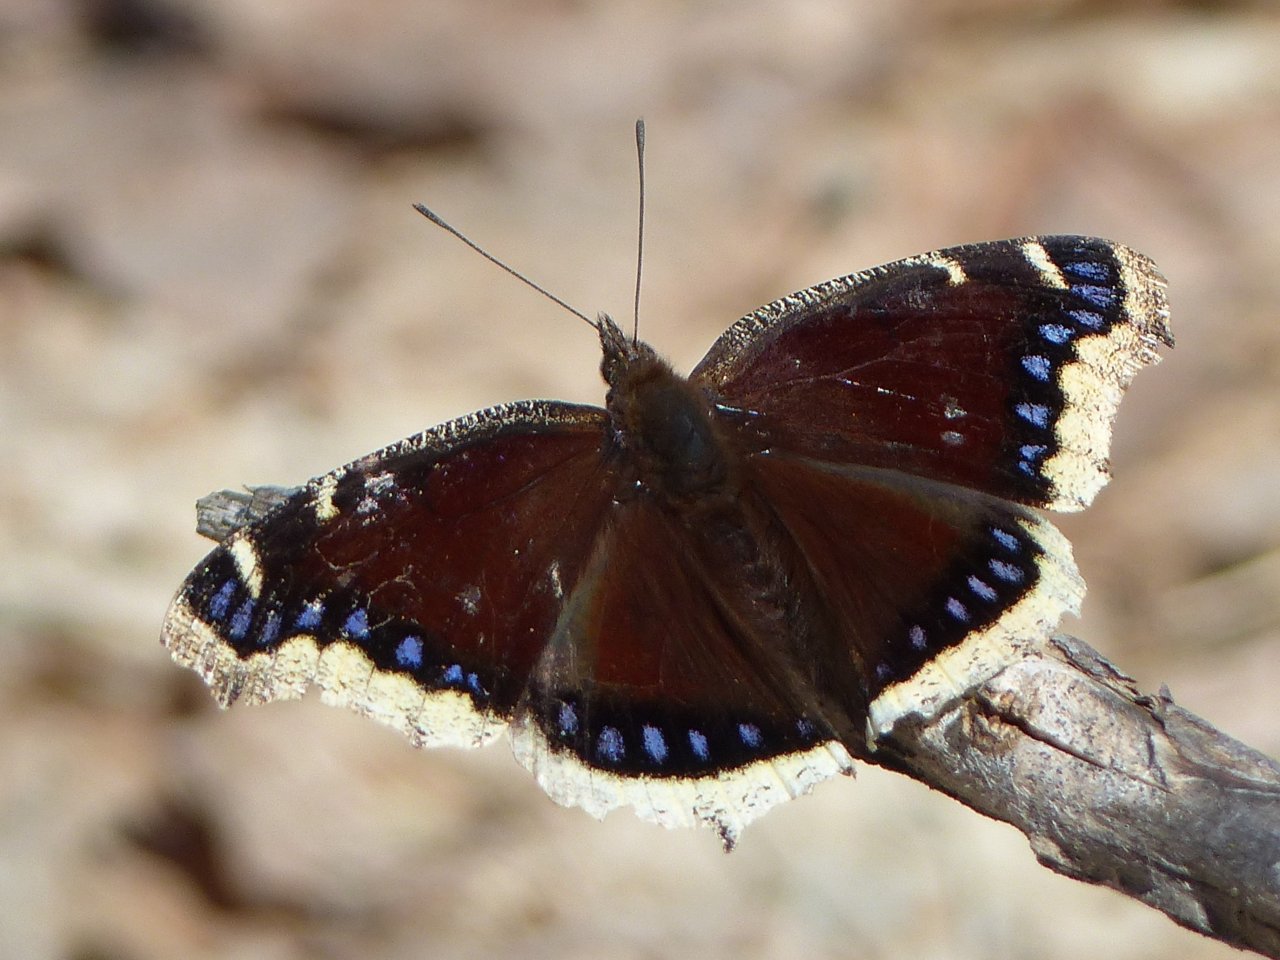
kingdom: Animalia
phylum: Arthropoda
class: Insecta
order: Lepidoptera
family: Nymphalidae
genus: Nymphalis
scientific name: Nymphalis antiopa
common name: Mourning Cloak
